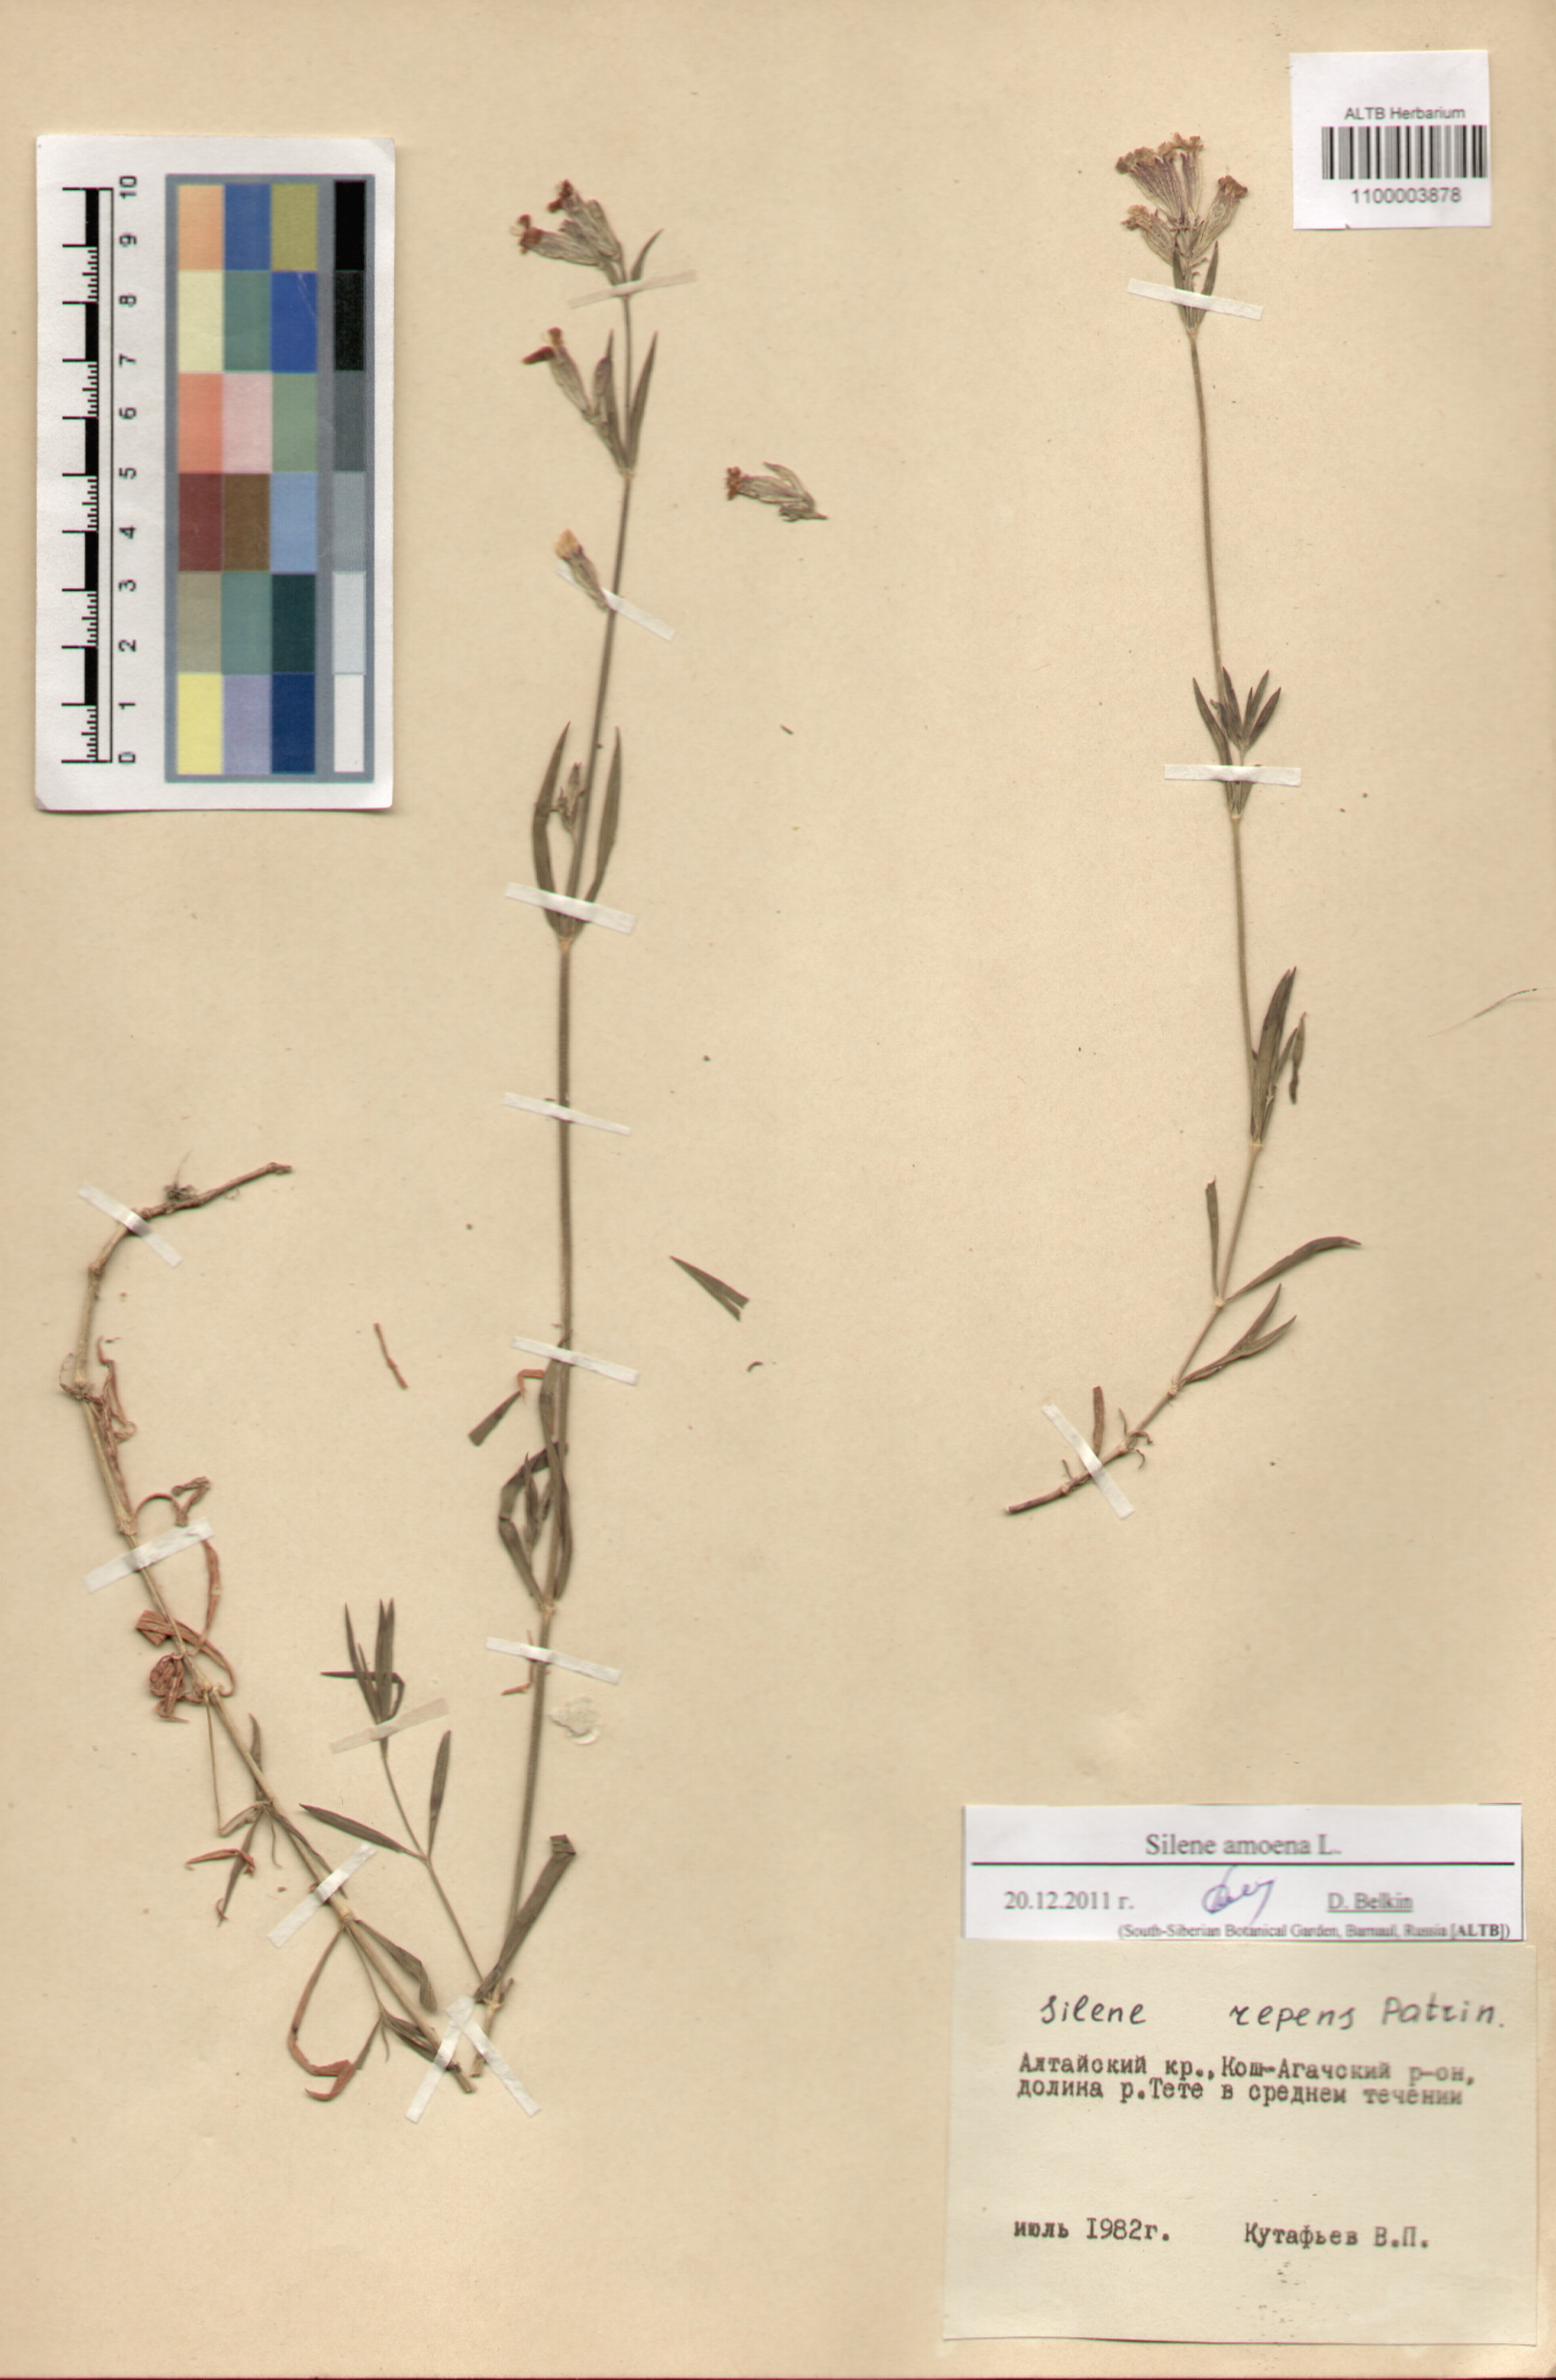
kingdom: Plantae
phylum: Tracheophyta
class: Magnoliopsida
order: Caryophyllales
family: Caryophyllaceae
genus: Silene
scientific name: Silene amoena
